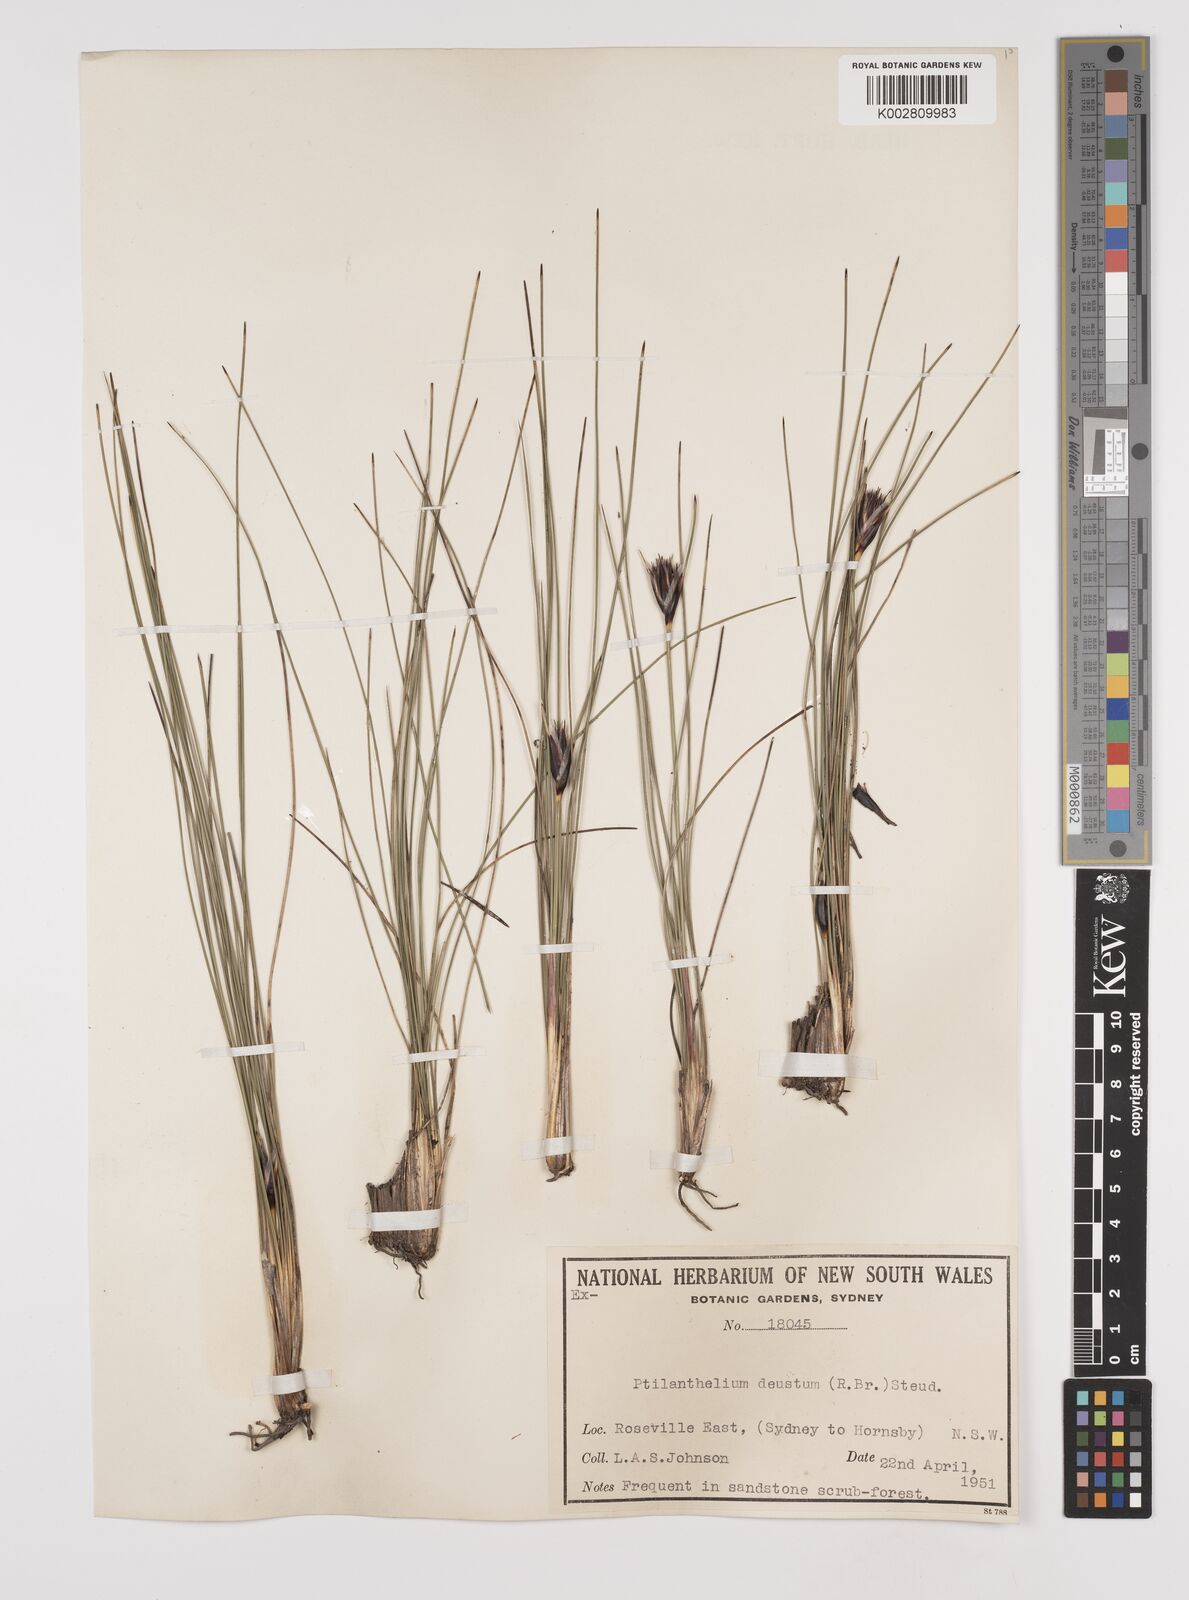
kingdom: Plantae
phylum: Tracheophyta
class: Liliopsida
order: Poales
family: Cyperaceae
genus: Ptilothrix
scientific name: Ptilothrix deusta
